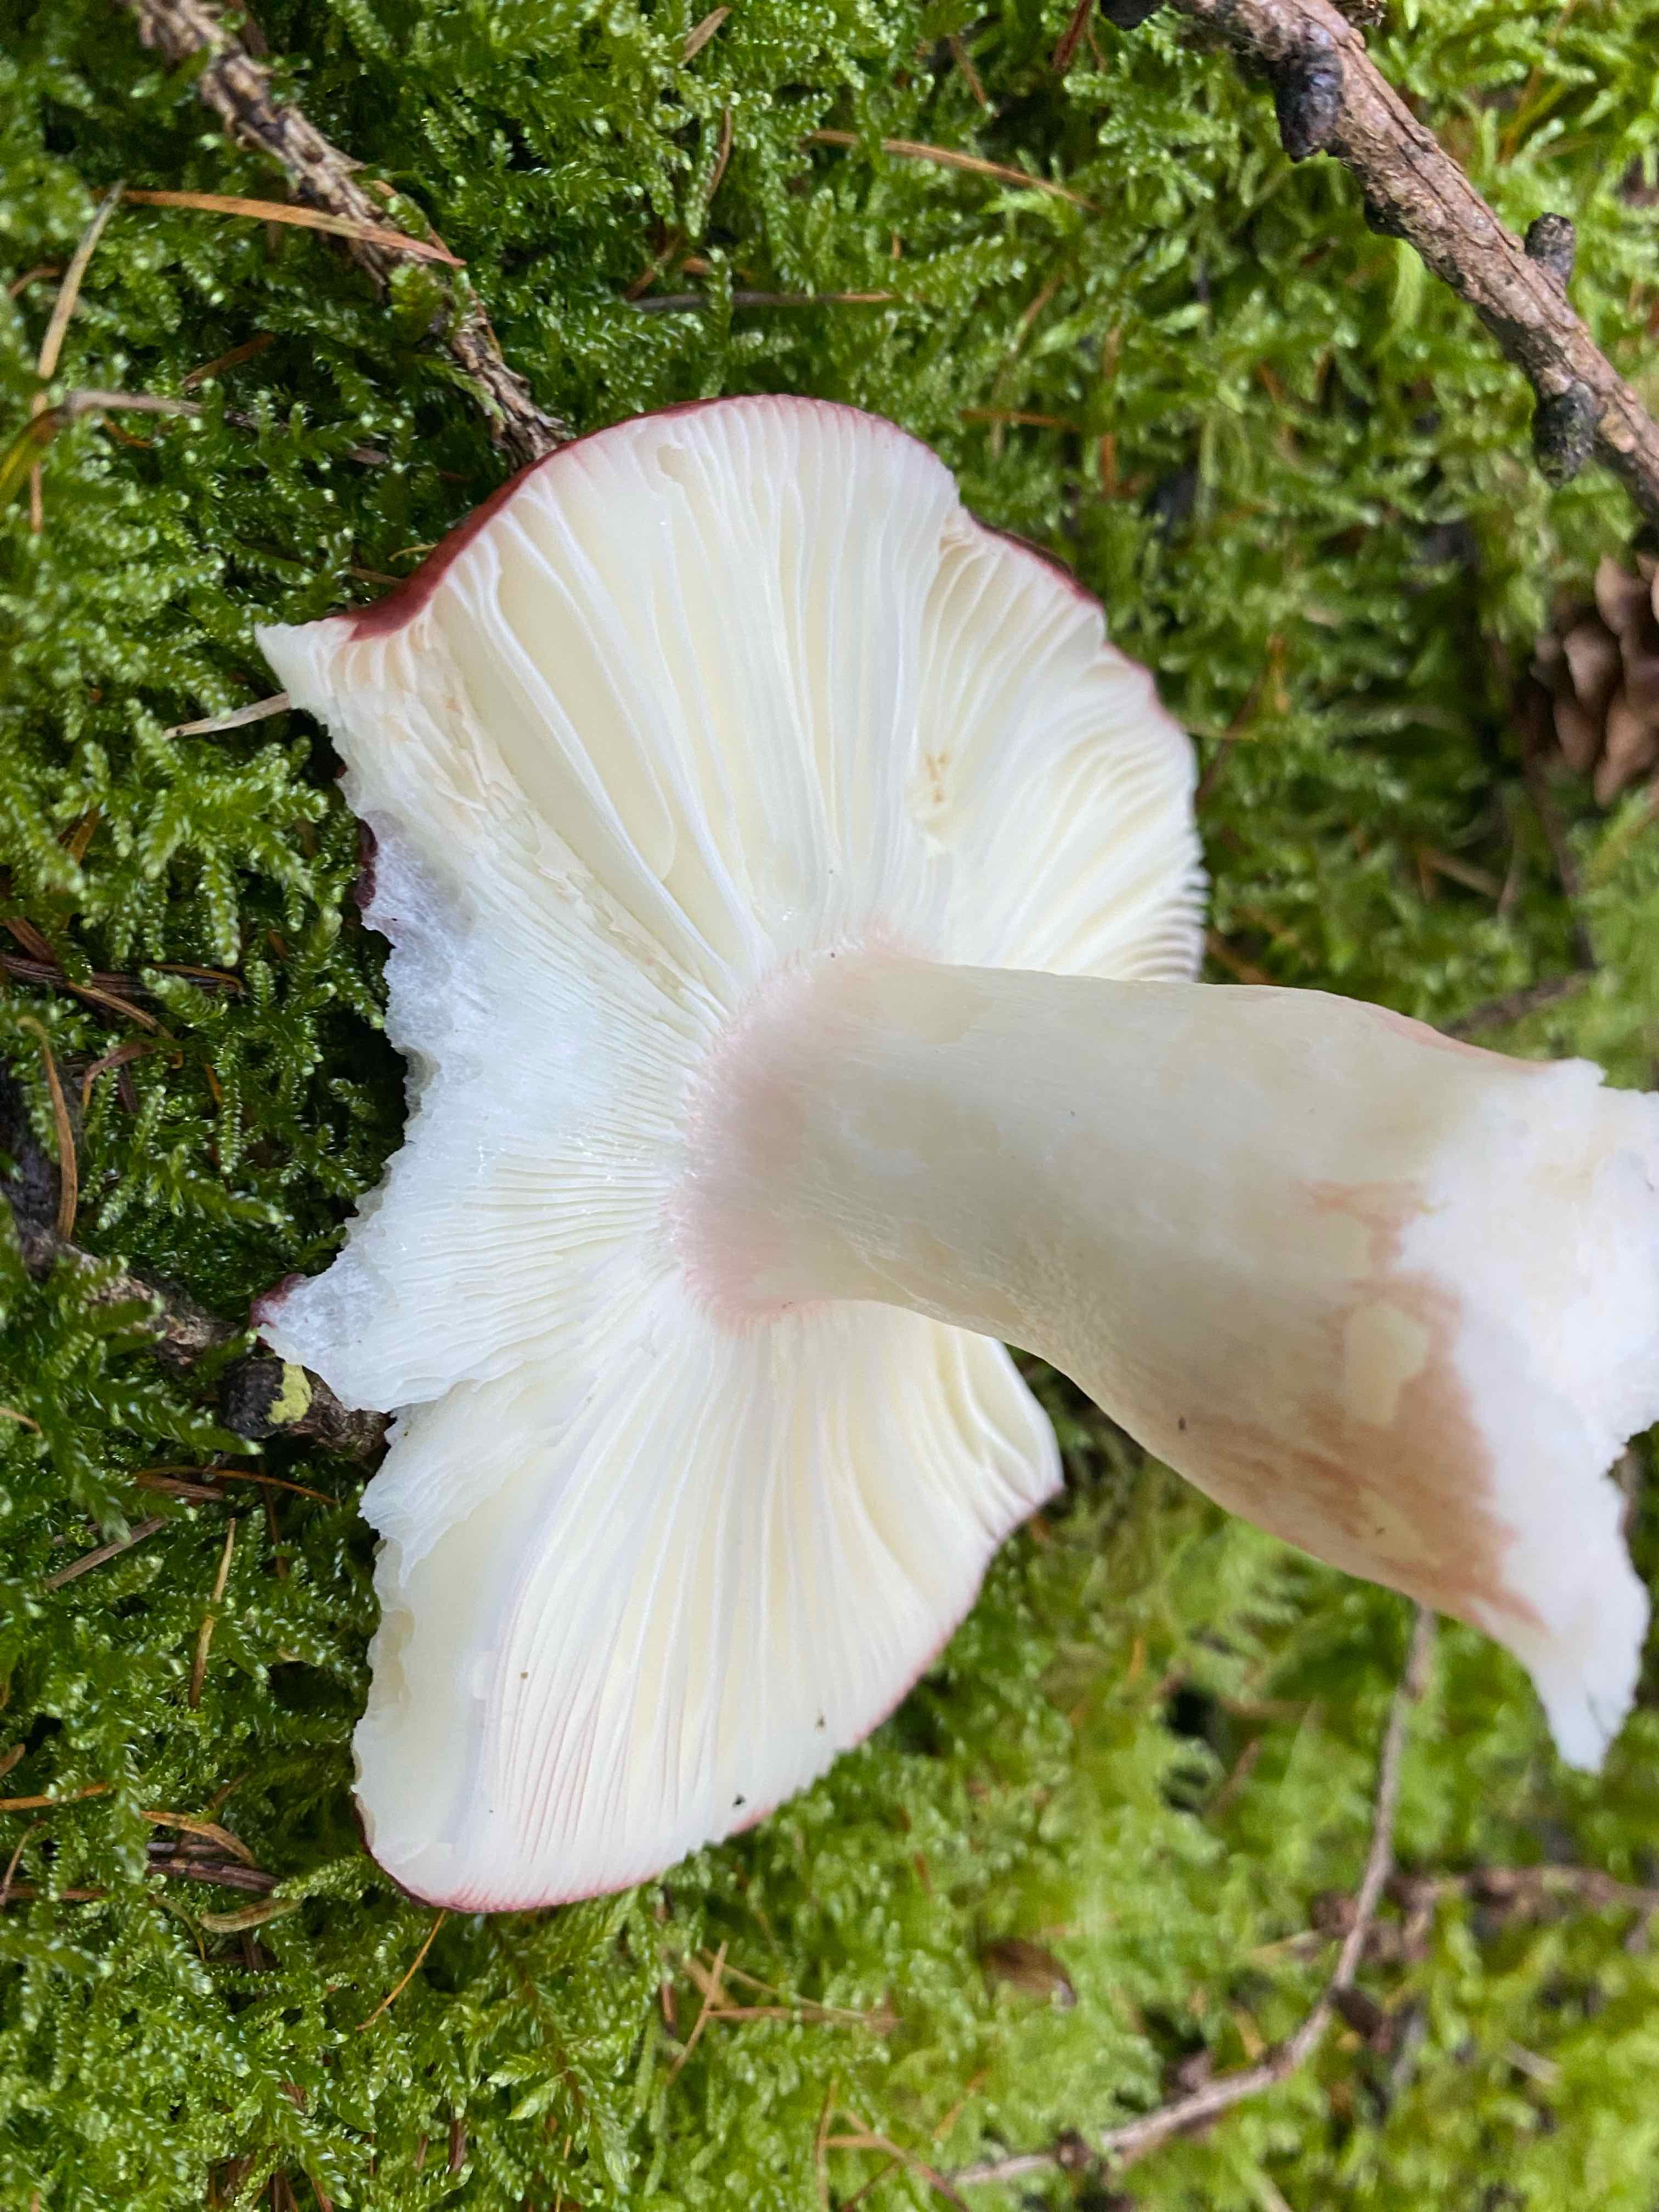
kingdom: Fungi
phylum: Basidiomycota
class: Agaricomycetes
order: Russulales
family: Russulaceae
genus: Russula
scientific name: Russula paludosa
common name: prægtig skørhat
